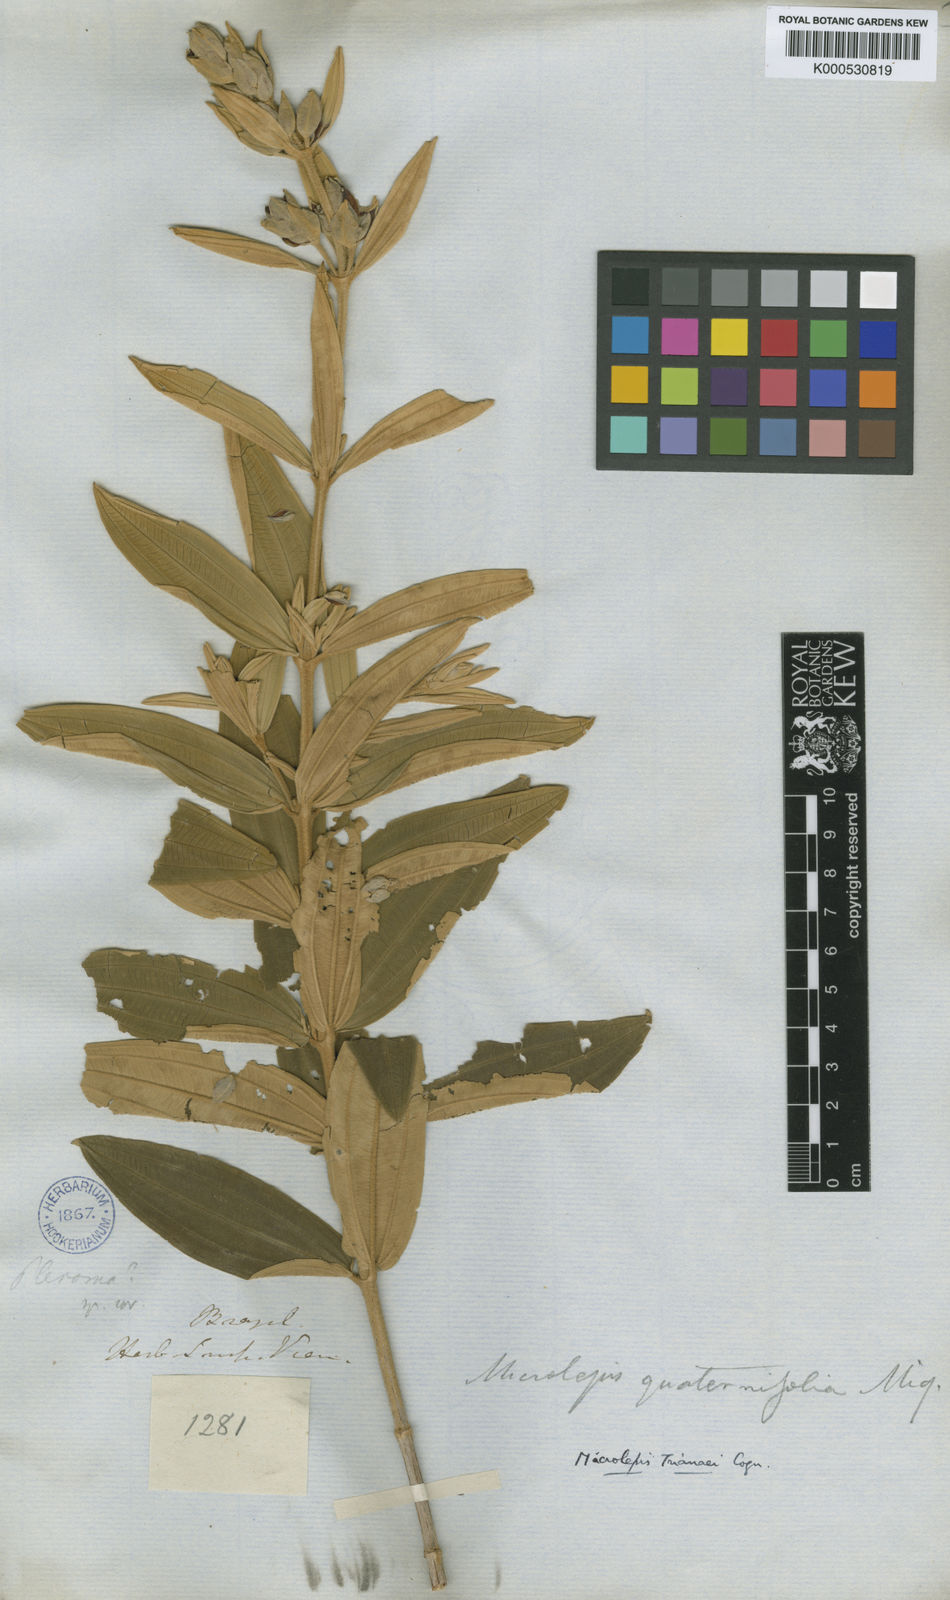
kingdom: Plantae
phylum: Tracheophyta
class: Magnoliopsida
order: Myrtales
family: Melastomataceae
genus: Pleroma
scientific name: Pleroma
